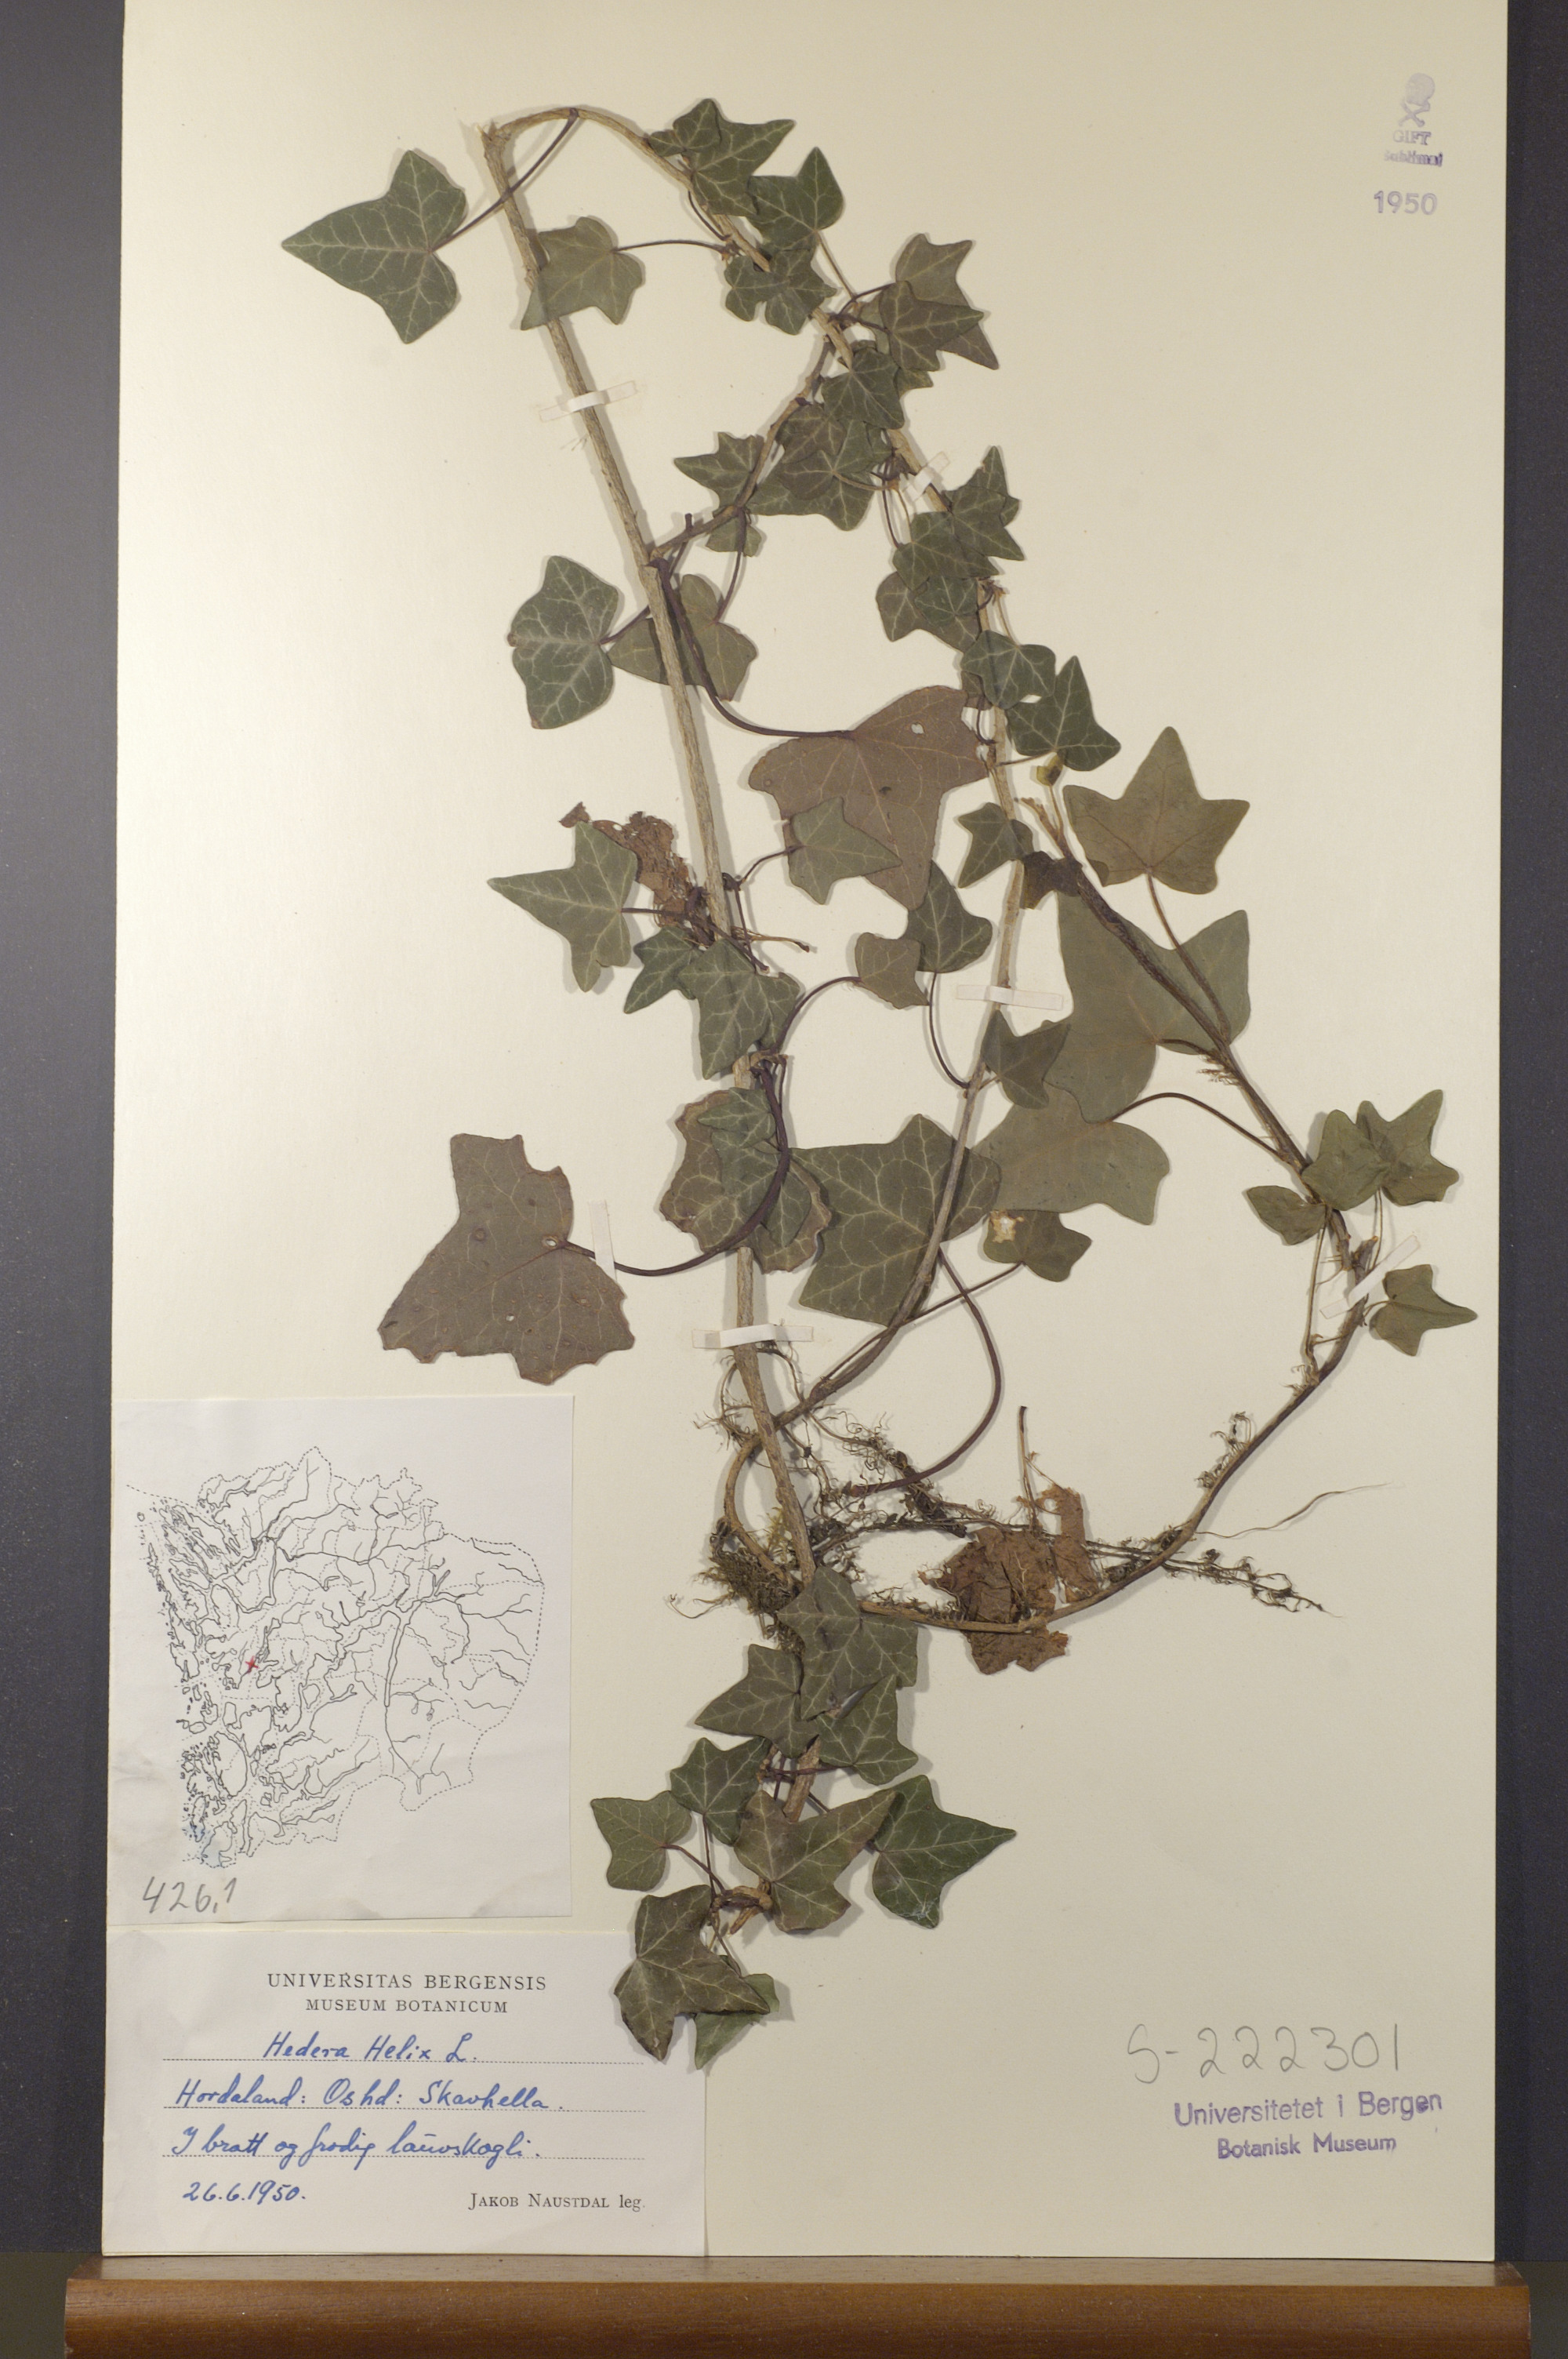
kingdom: Plantae
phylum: Tracheophyta
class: Magnoliopsida
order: Apiales
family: Araliaceae
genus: Hedera
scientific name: Hedera helix
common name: Ivy
